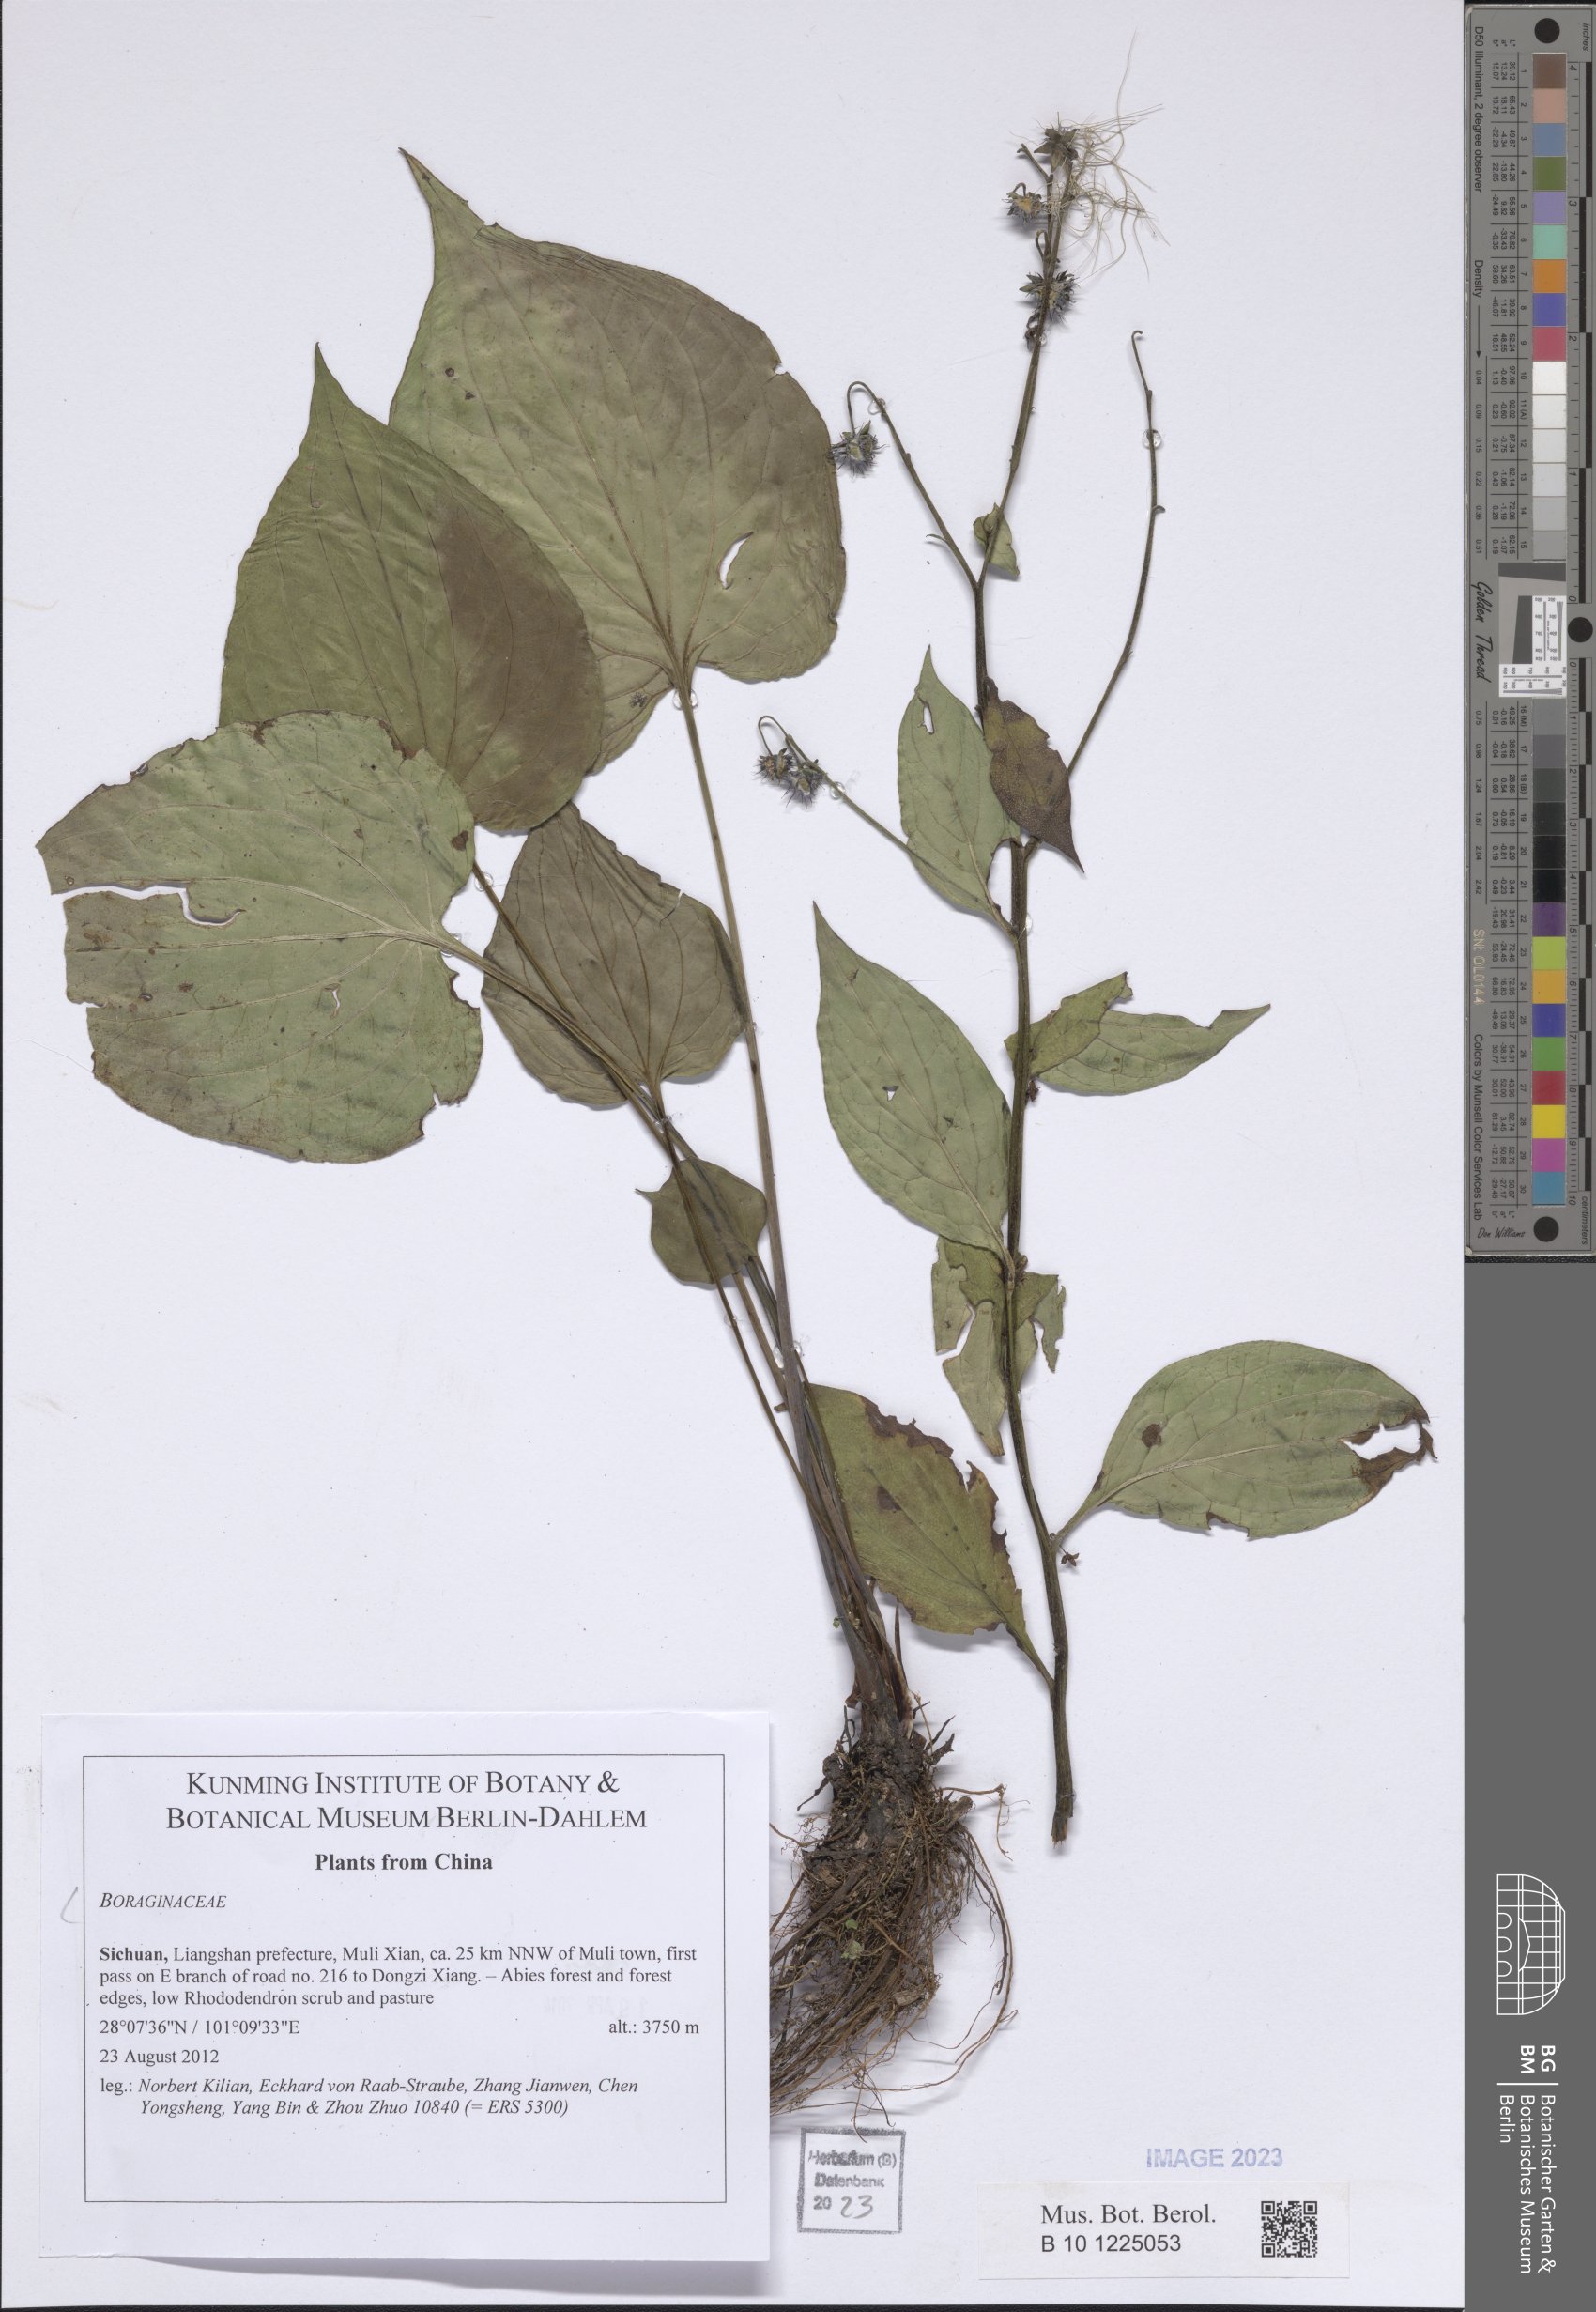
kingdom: Plantae
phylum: Tracheophyta
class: Magnoliopsida
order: Boraginales
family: Boraginaceae
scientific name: Boraginaceae
